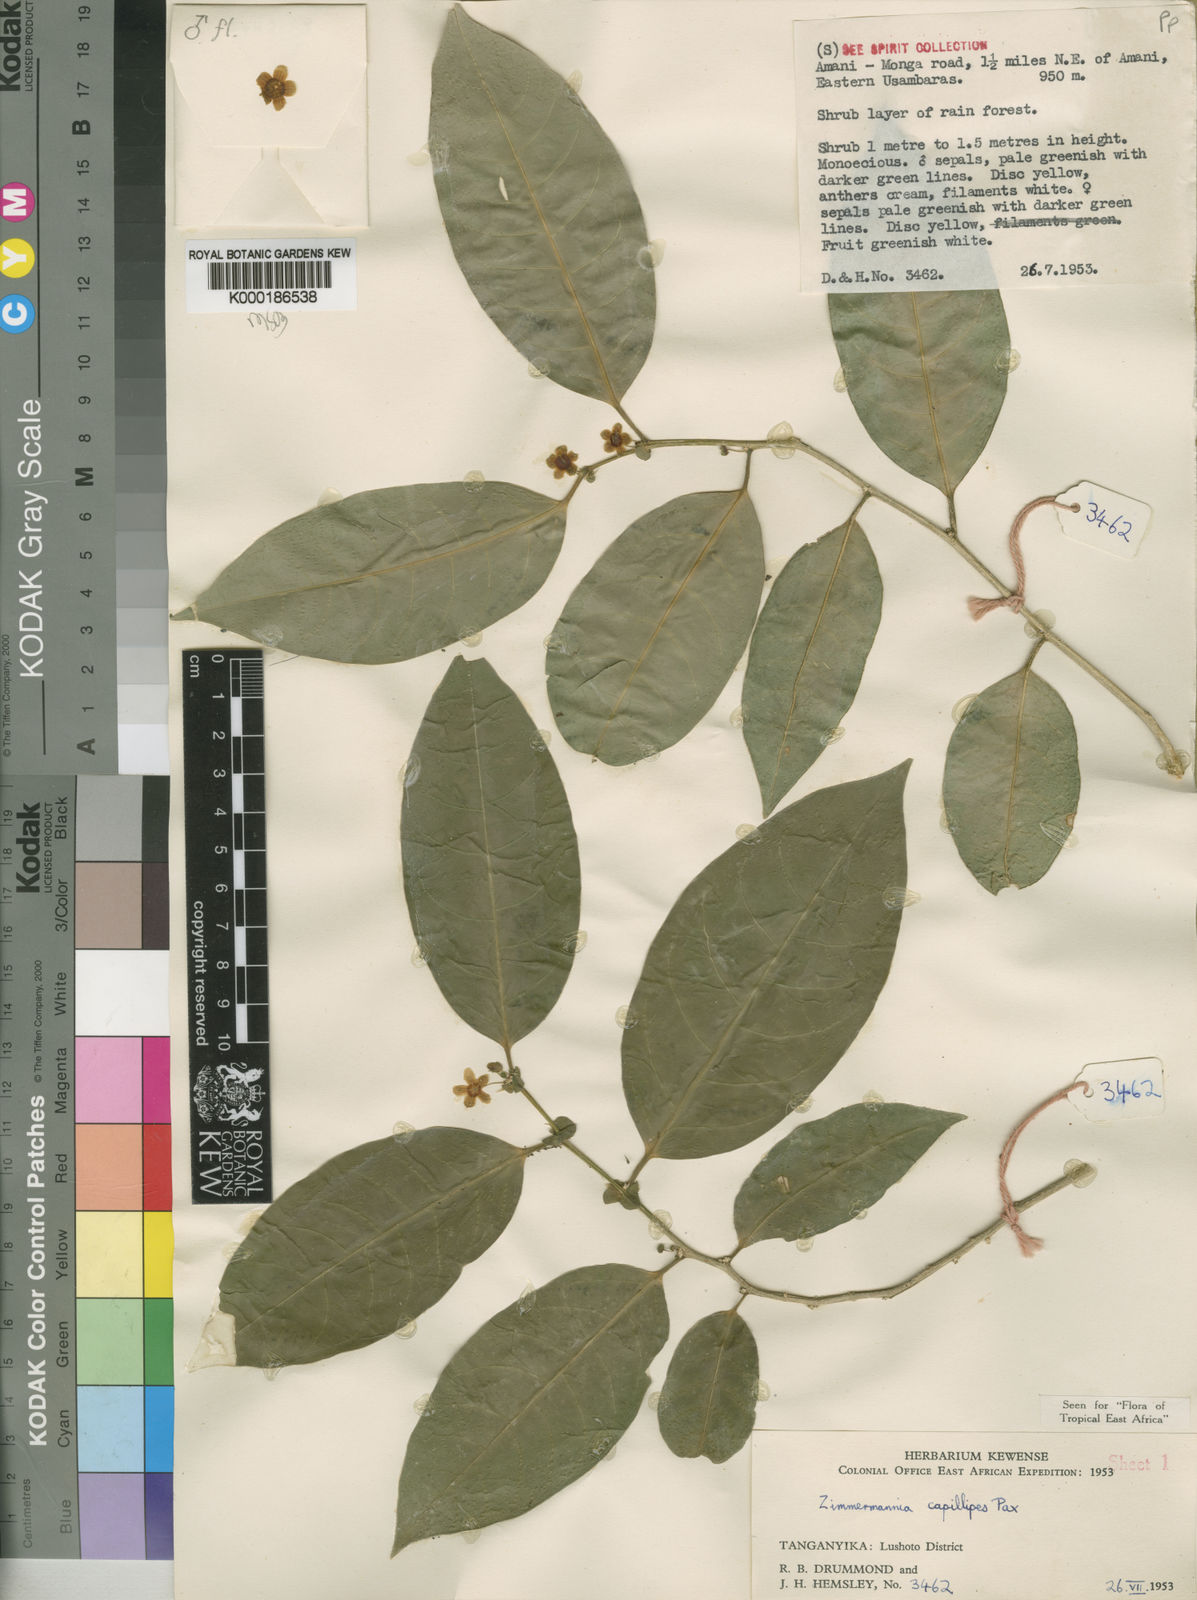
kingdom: Plantae
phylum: Tracheophyta
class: Magnoliopsida
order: Malpighiales
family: Phyllanthaceae
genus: Meineckia
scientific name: Meineckia paxii
